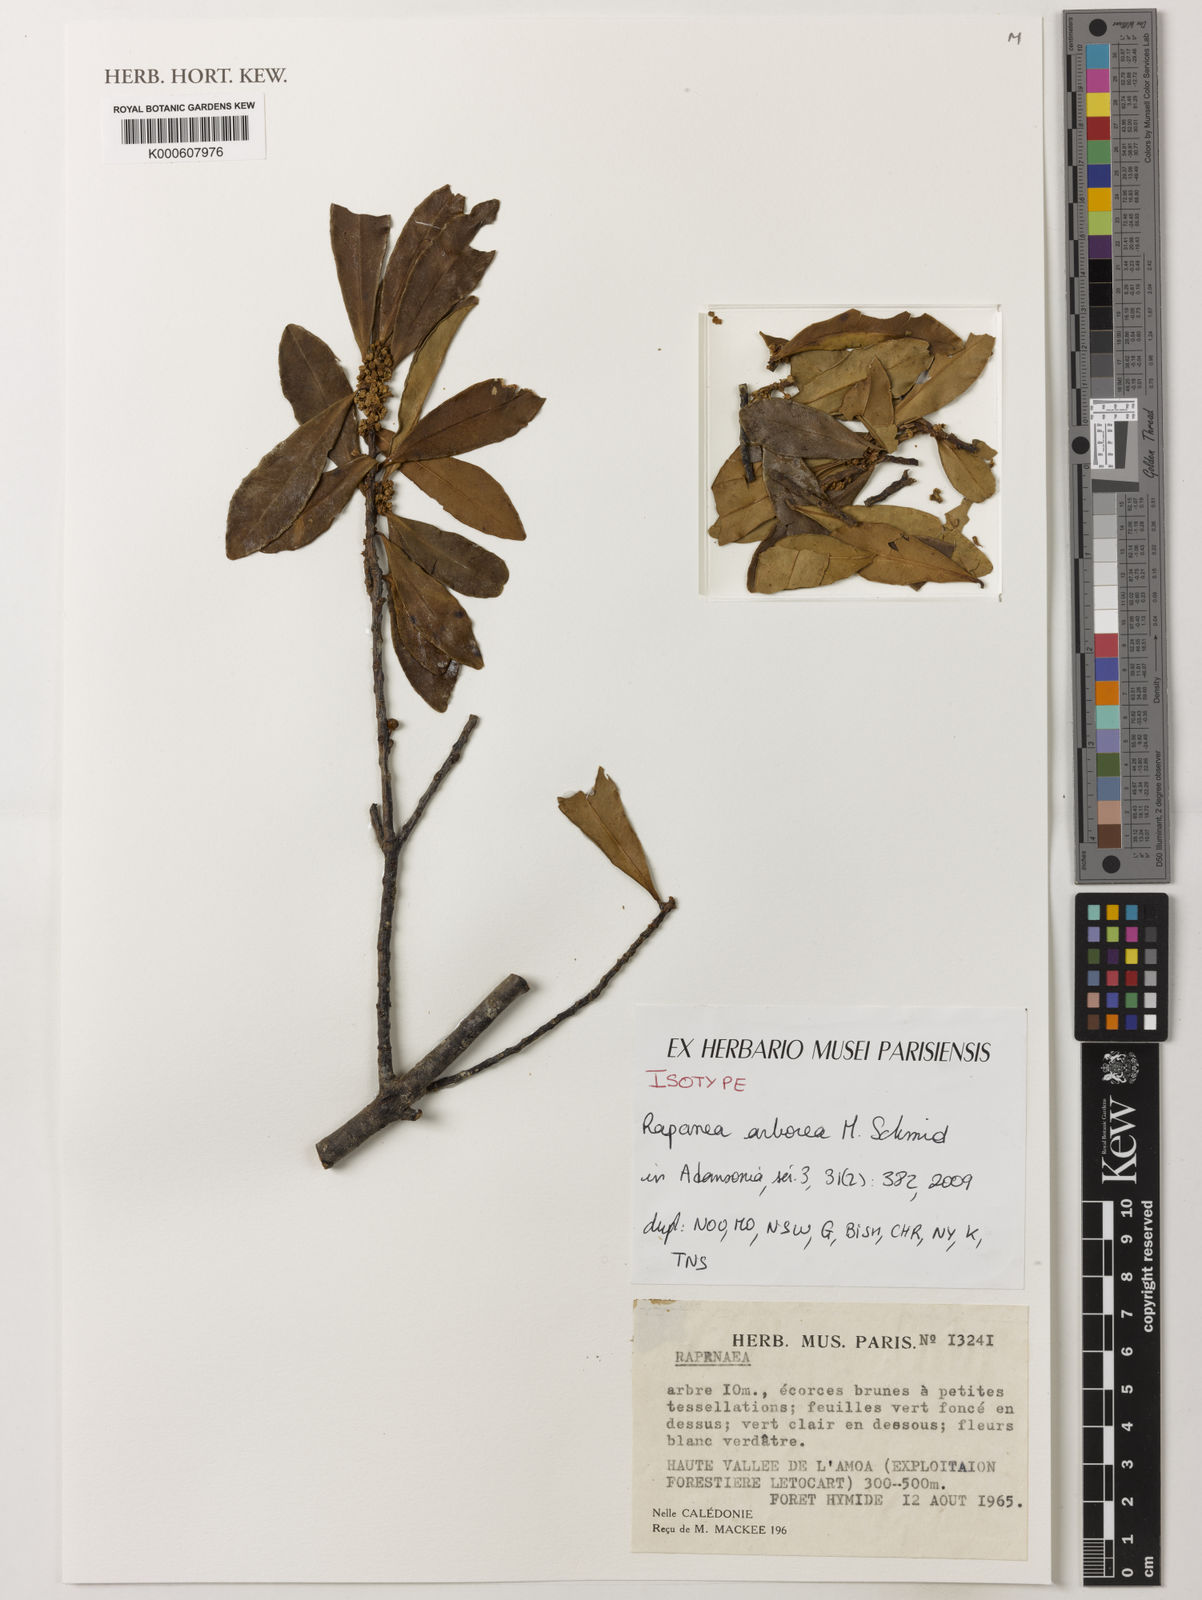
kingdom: Plantae
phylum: Tracheophyta
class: Magnoliopsida
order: Ericales
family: Primulaceae
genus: Myrsine
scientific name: Myrsine arborea
